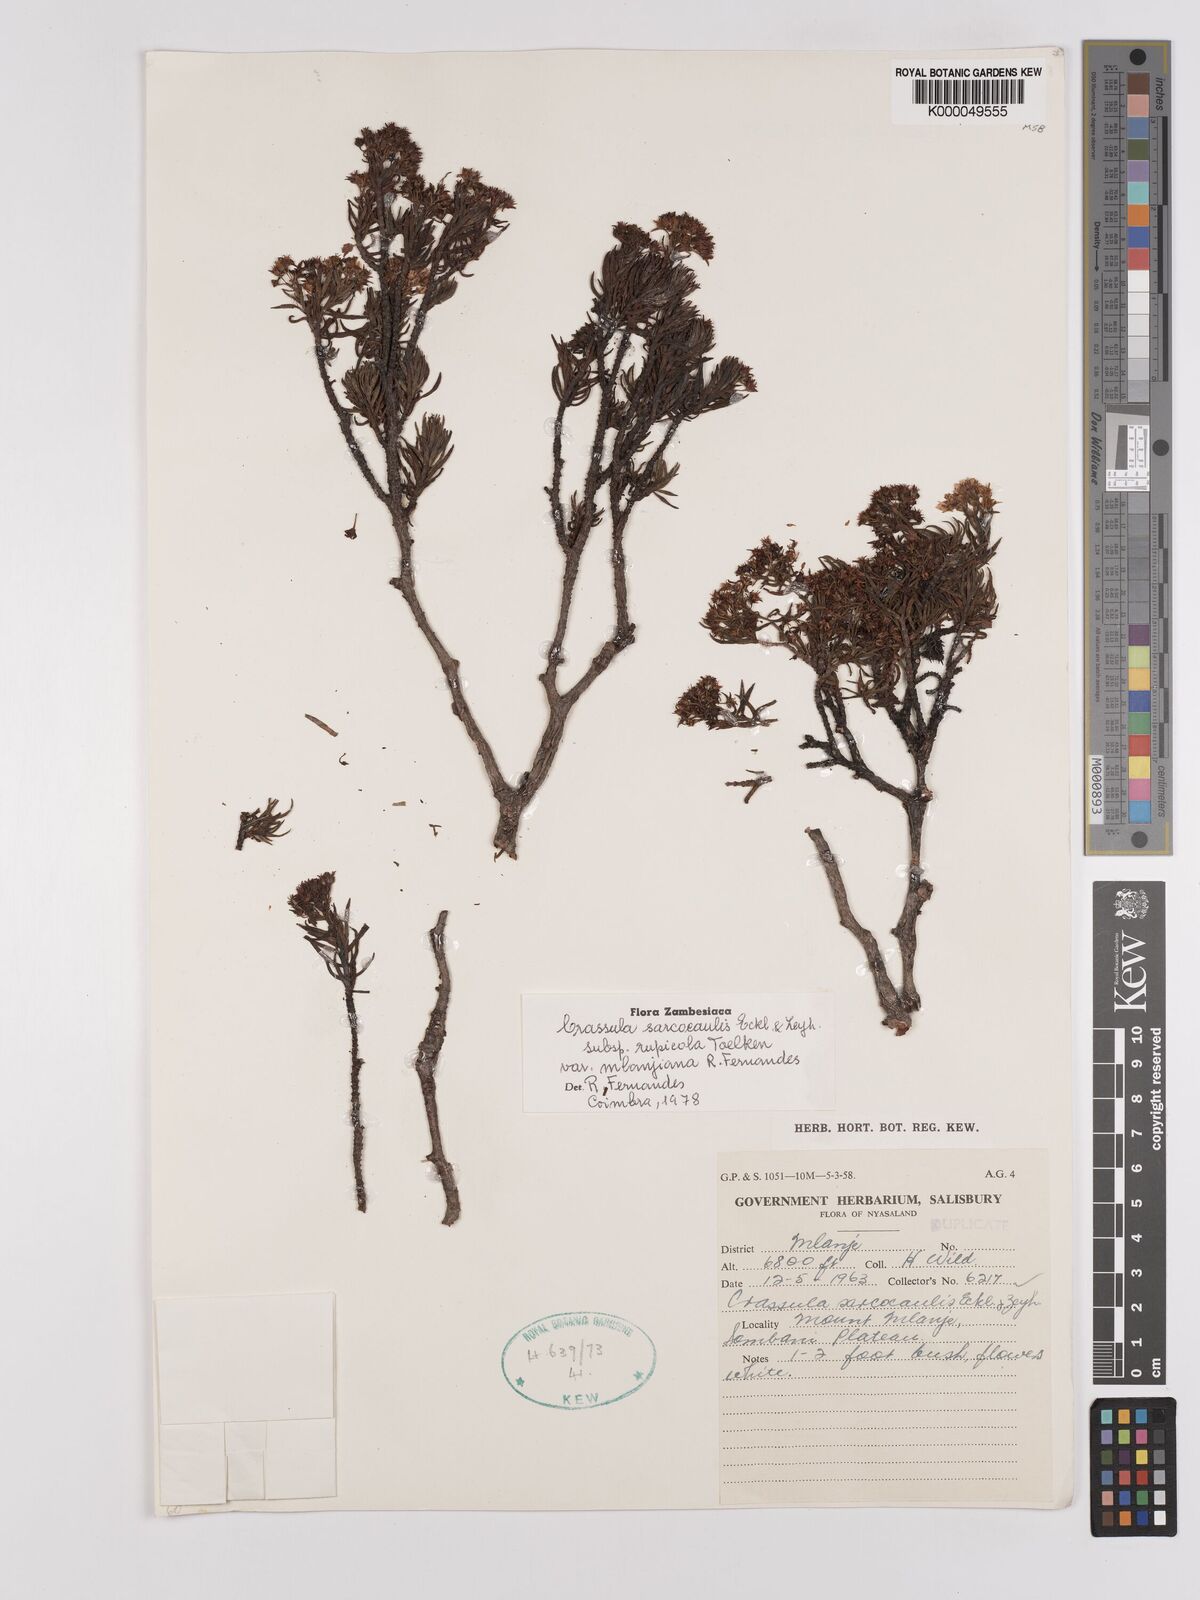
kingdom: Plantae
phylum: Tracheophyta
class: Magnoliopsida
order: Saxifragales
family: Crassulaceae
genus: Crassula
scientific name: Crassula sarcocaulis
